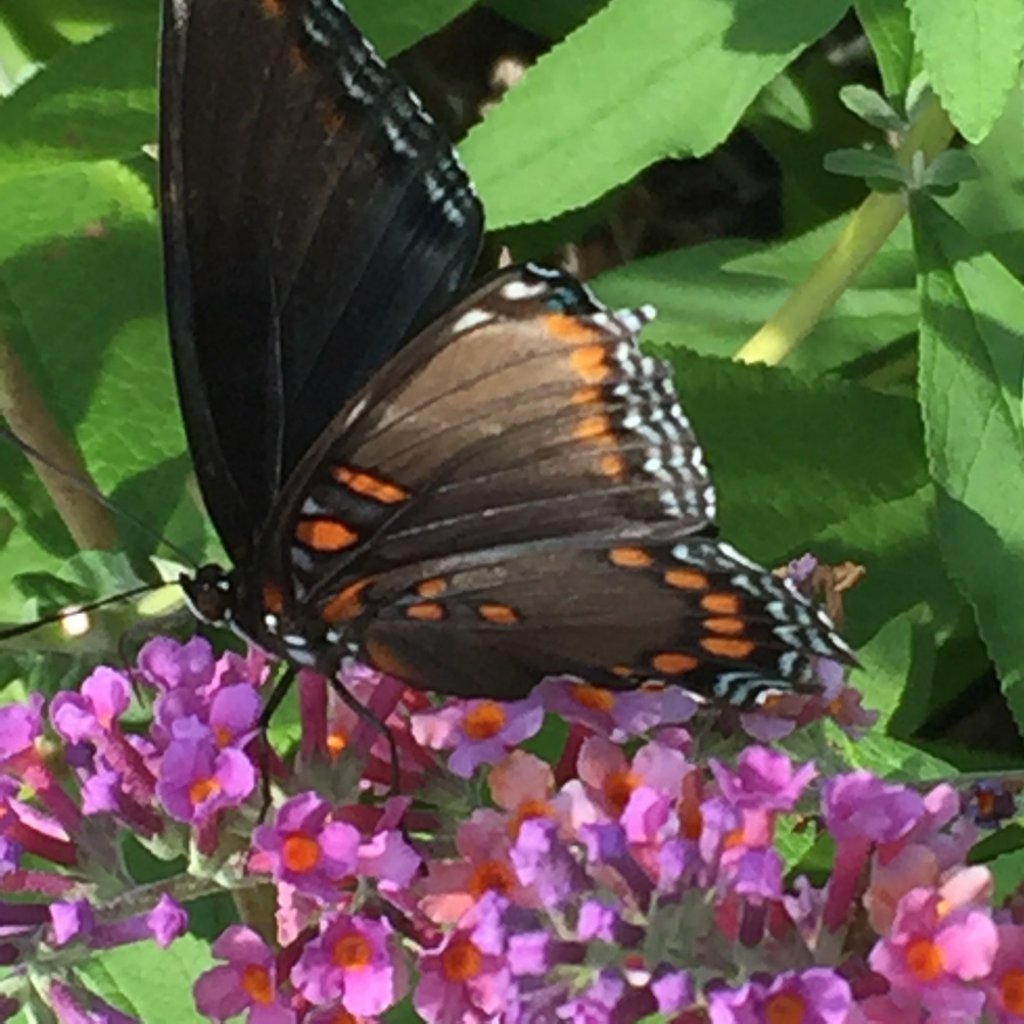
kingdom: Animalia
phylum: Arthropoda
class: Insecta
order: Lepidoptera
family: Nymphalidae
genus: Limenitis
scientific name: Limenitis astyanax
